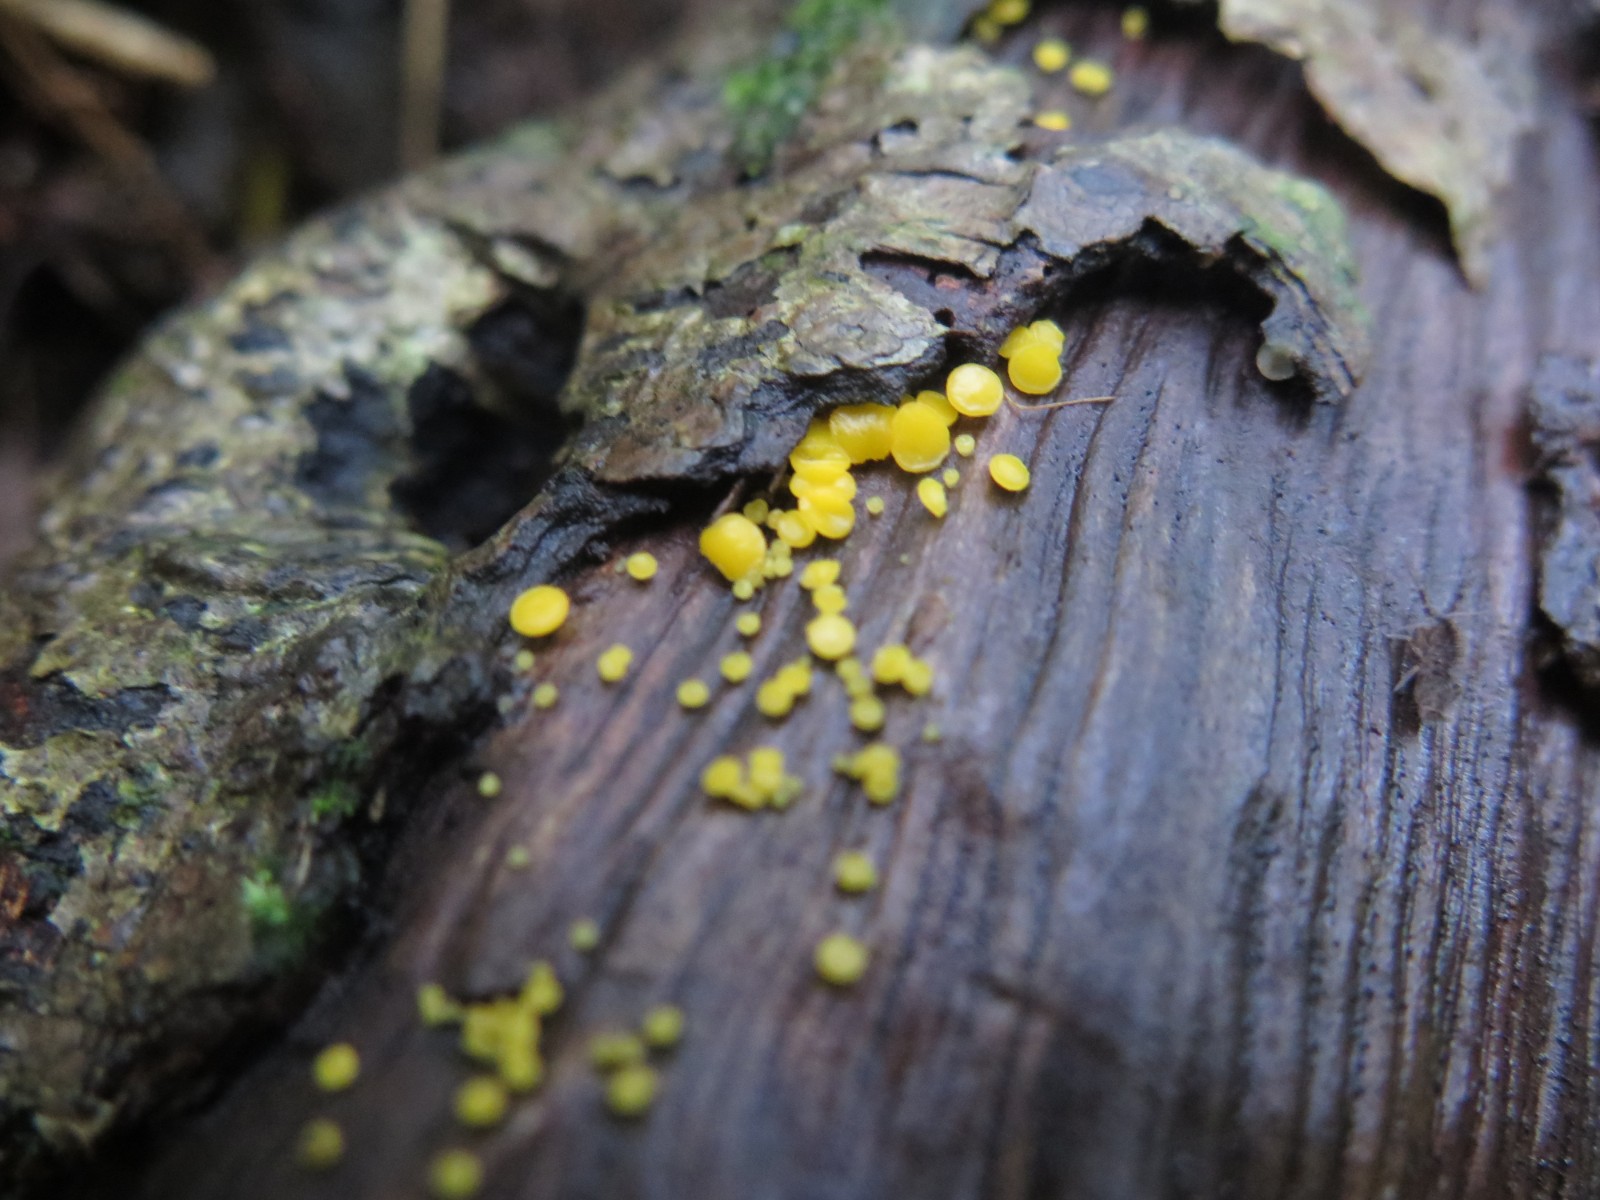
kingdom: Fungi
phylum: Ascomycota
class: Leotiomycetes
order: Helotiales
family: Pezizellaceae
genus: Calycina
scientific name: Calycina citrina
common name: almindelig gulskive
